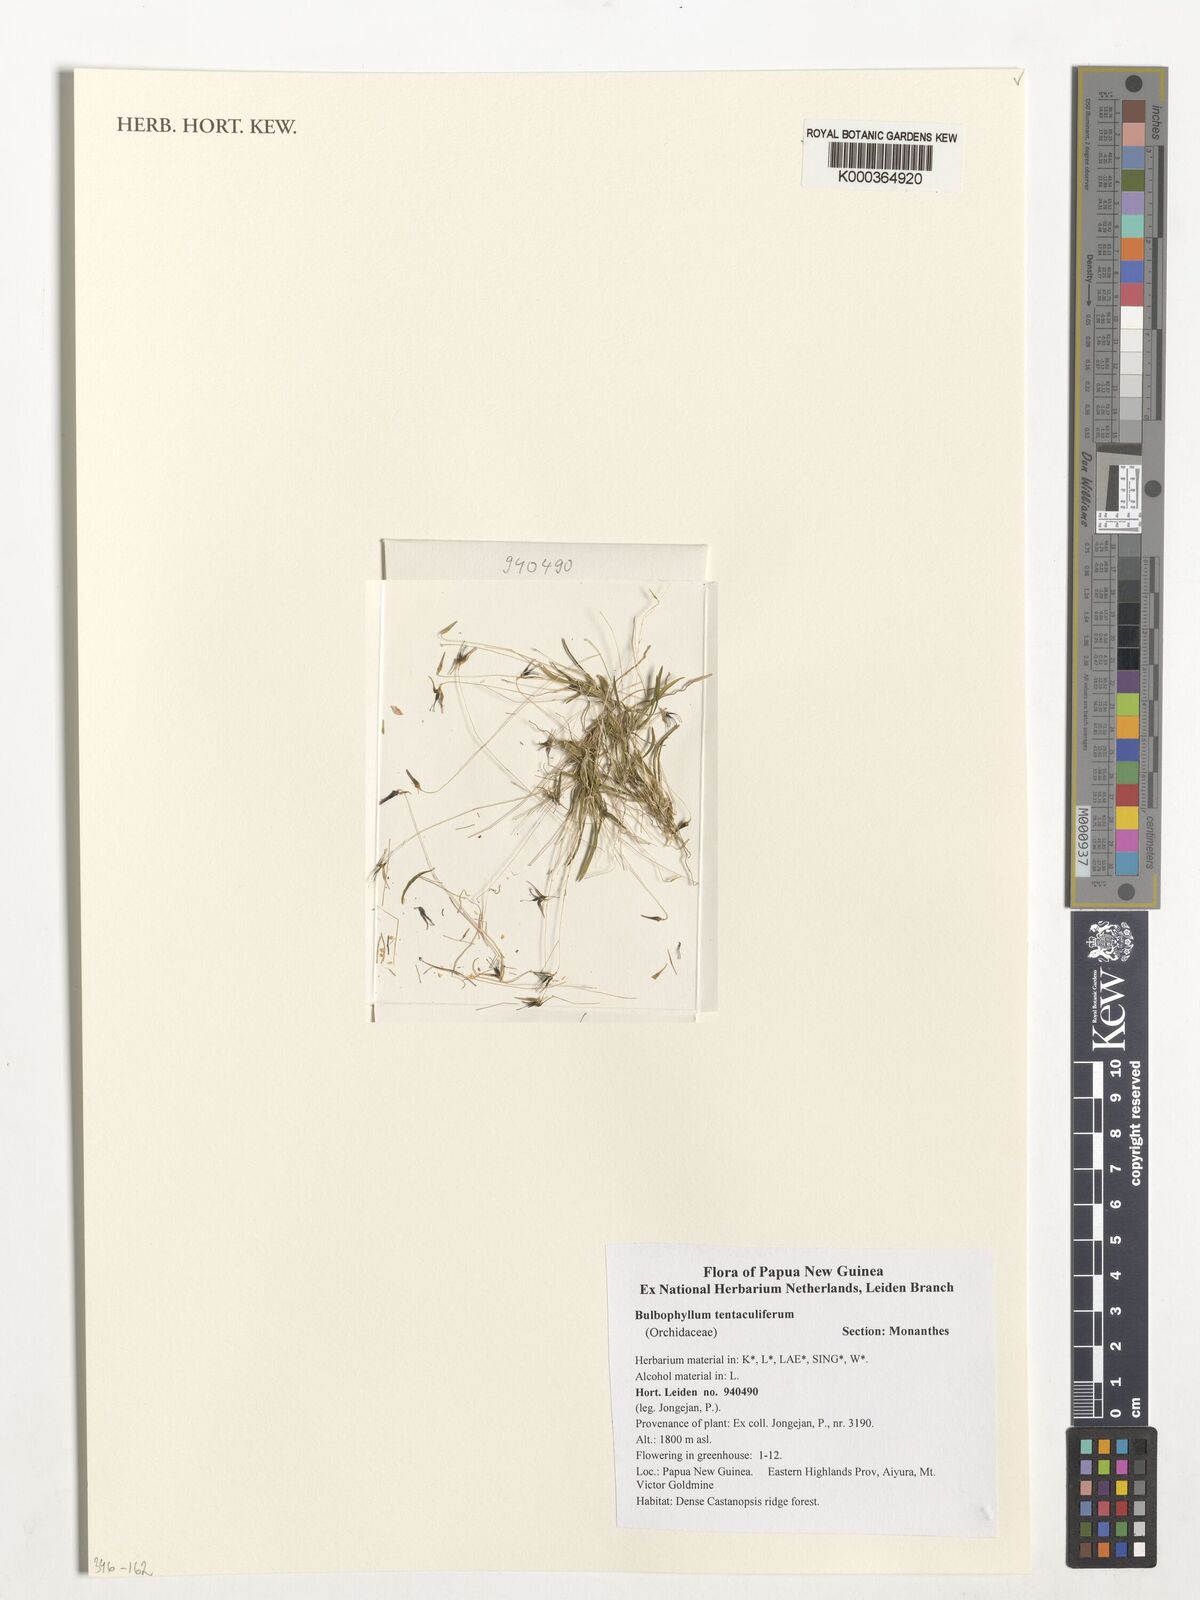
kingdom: Plantae
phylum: Tracheophyta
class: Liliopsida
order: Asparagales
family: Orchidaceae
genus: Bulbophyllum
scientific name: Bulbophyllum tentaculiferum
